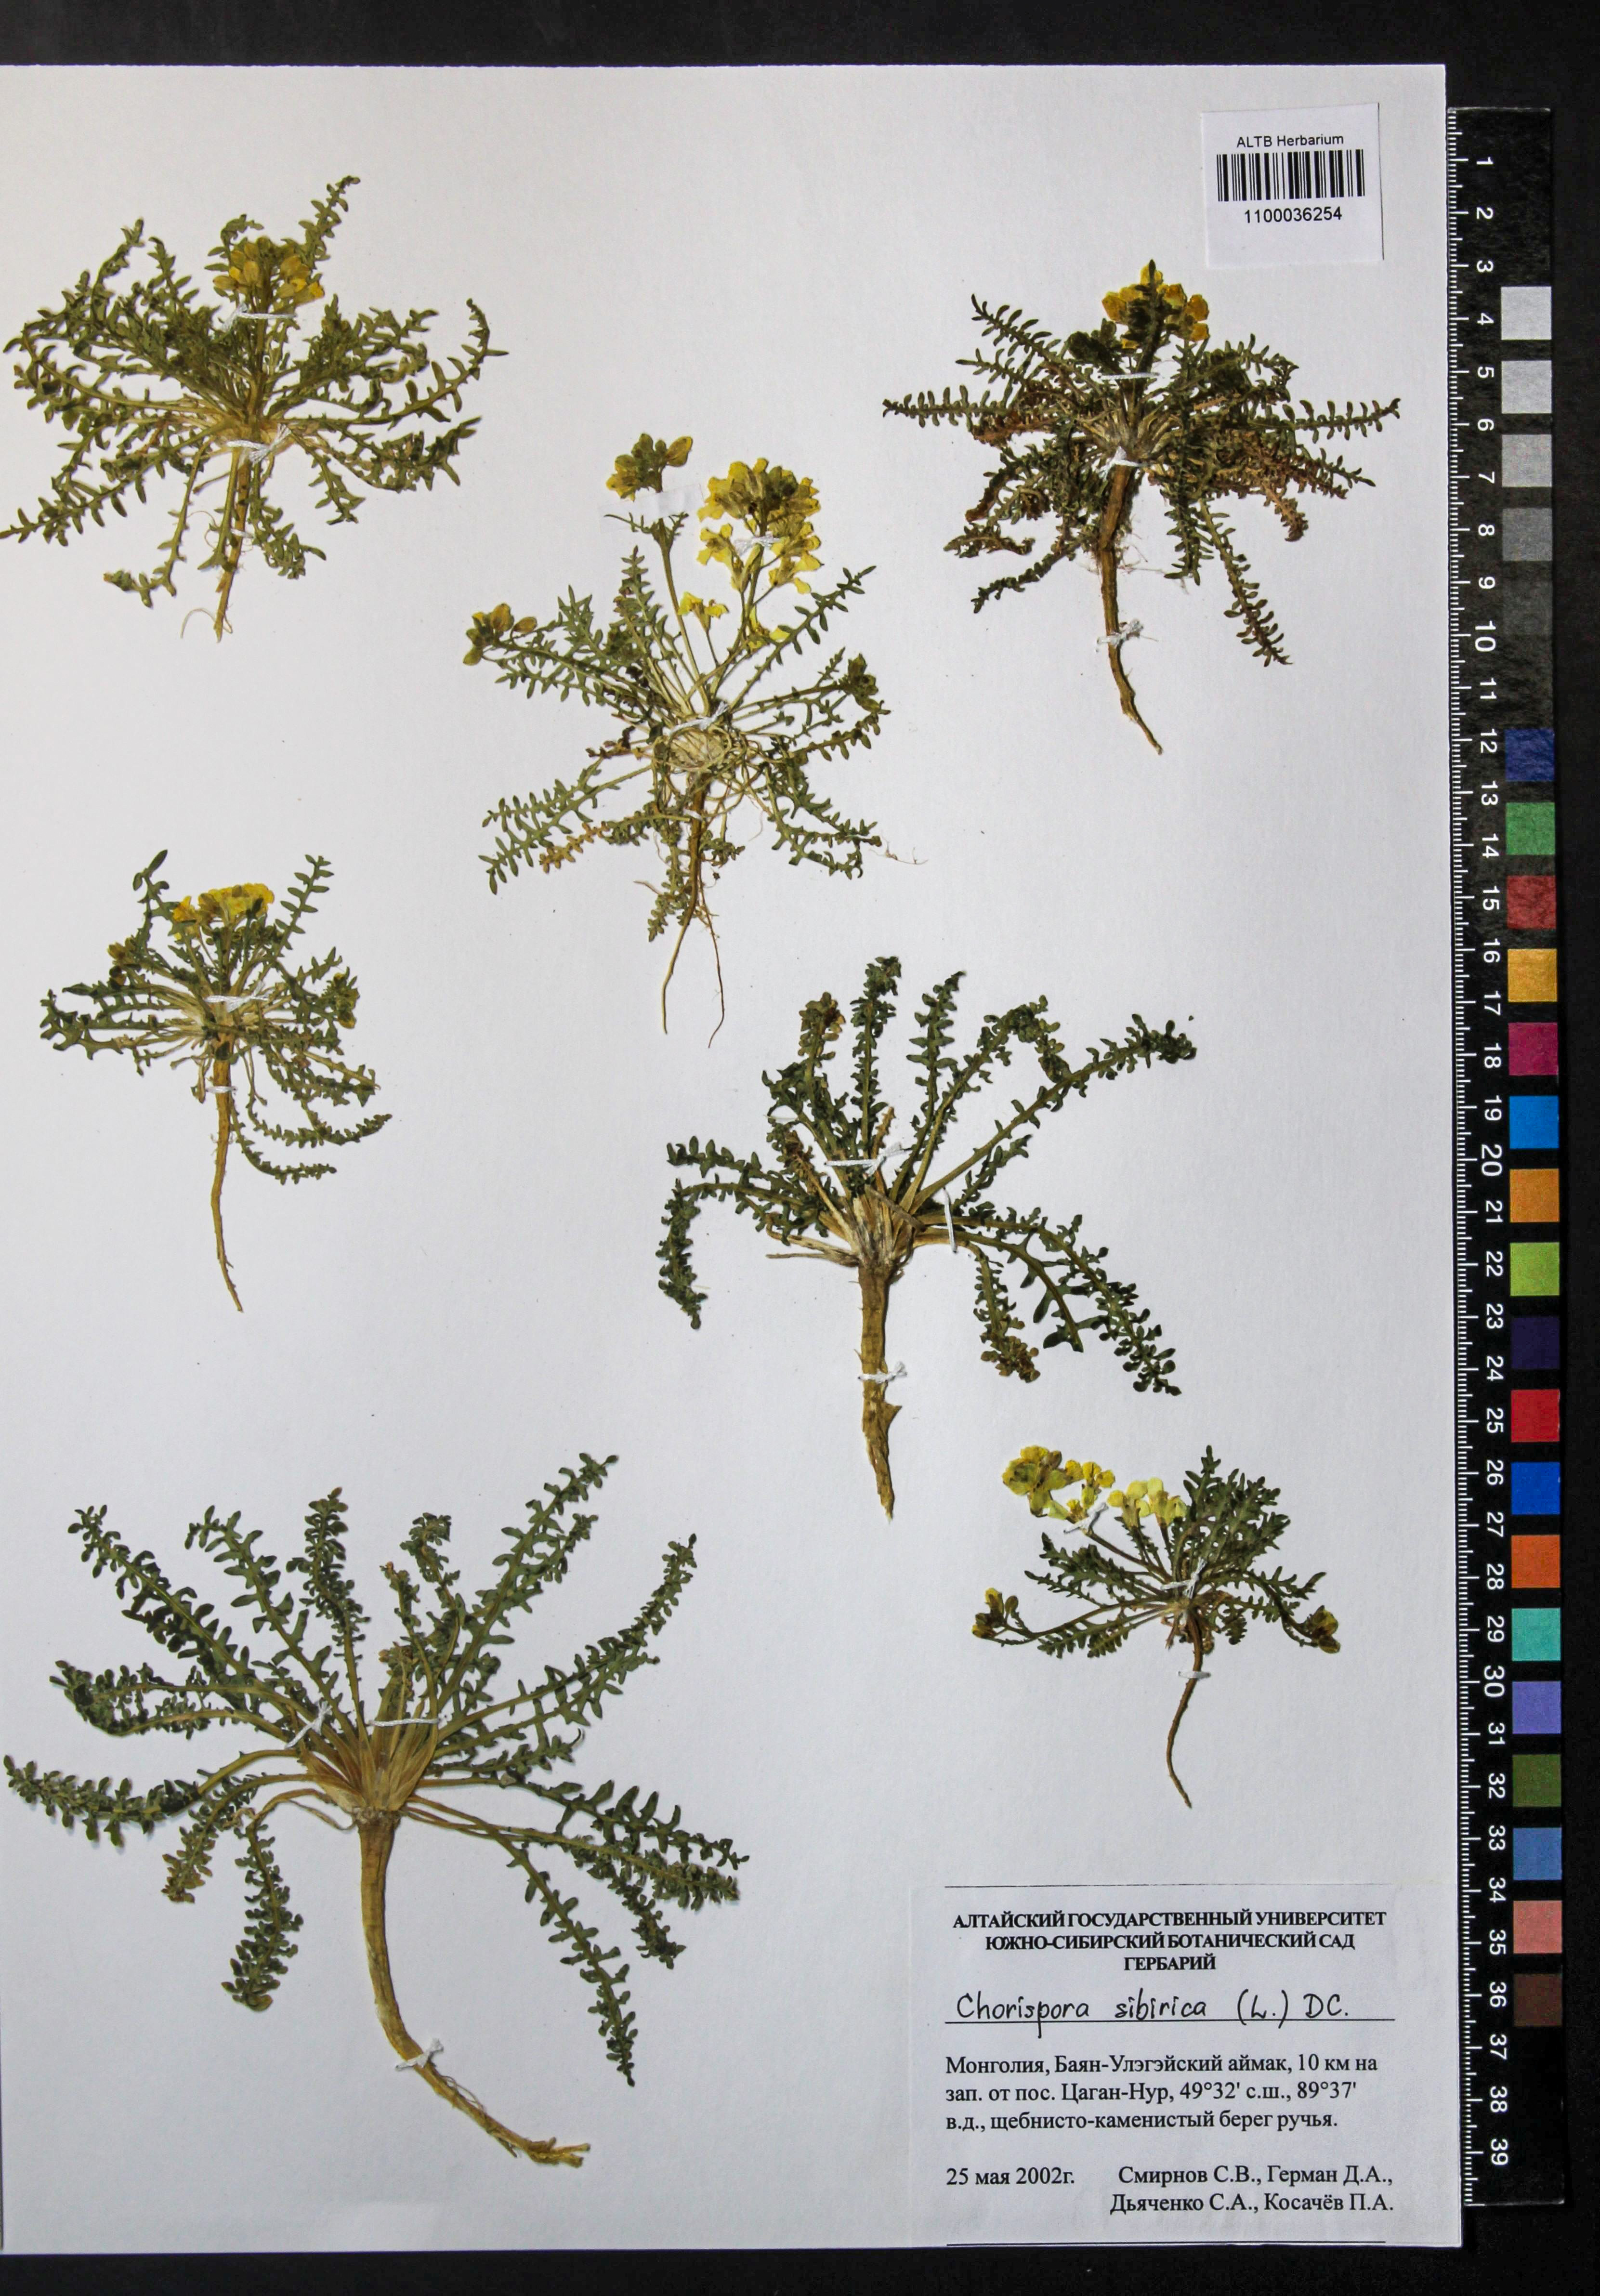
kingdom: Plantae
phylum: Tracheophyta
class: Magnoliopsida
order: Brassicales
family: Brassicaceae
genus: Chorispora
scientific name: Chorispora sibirica
